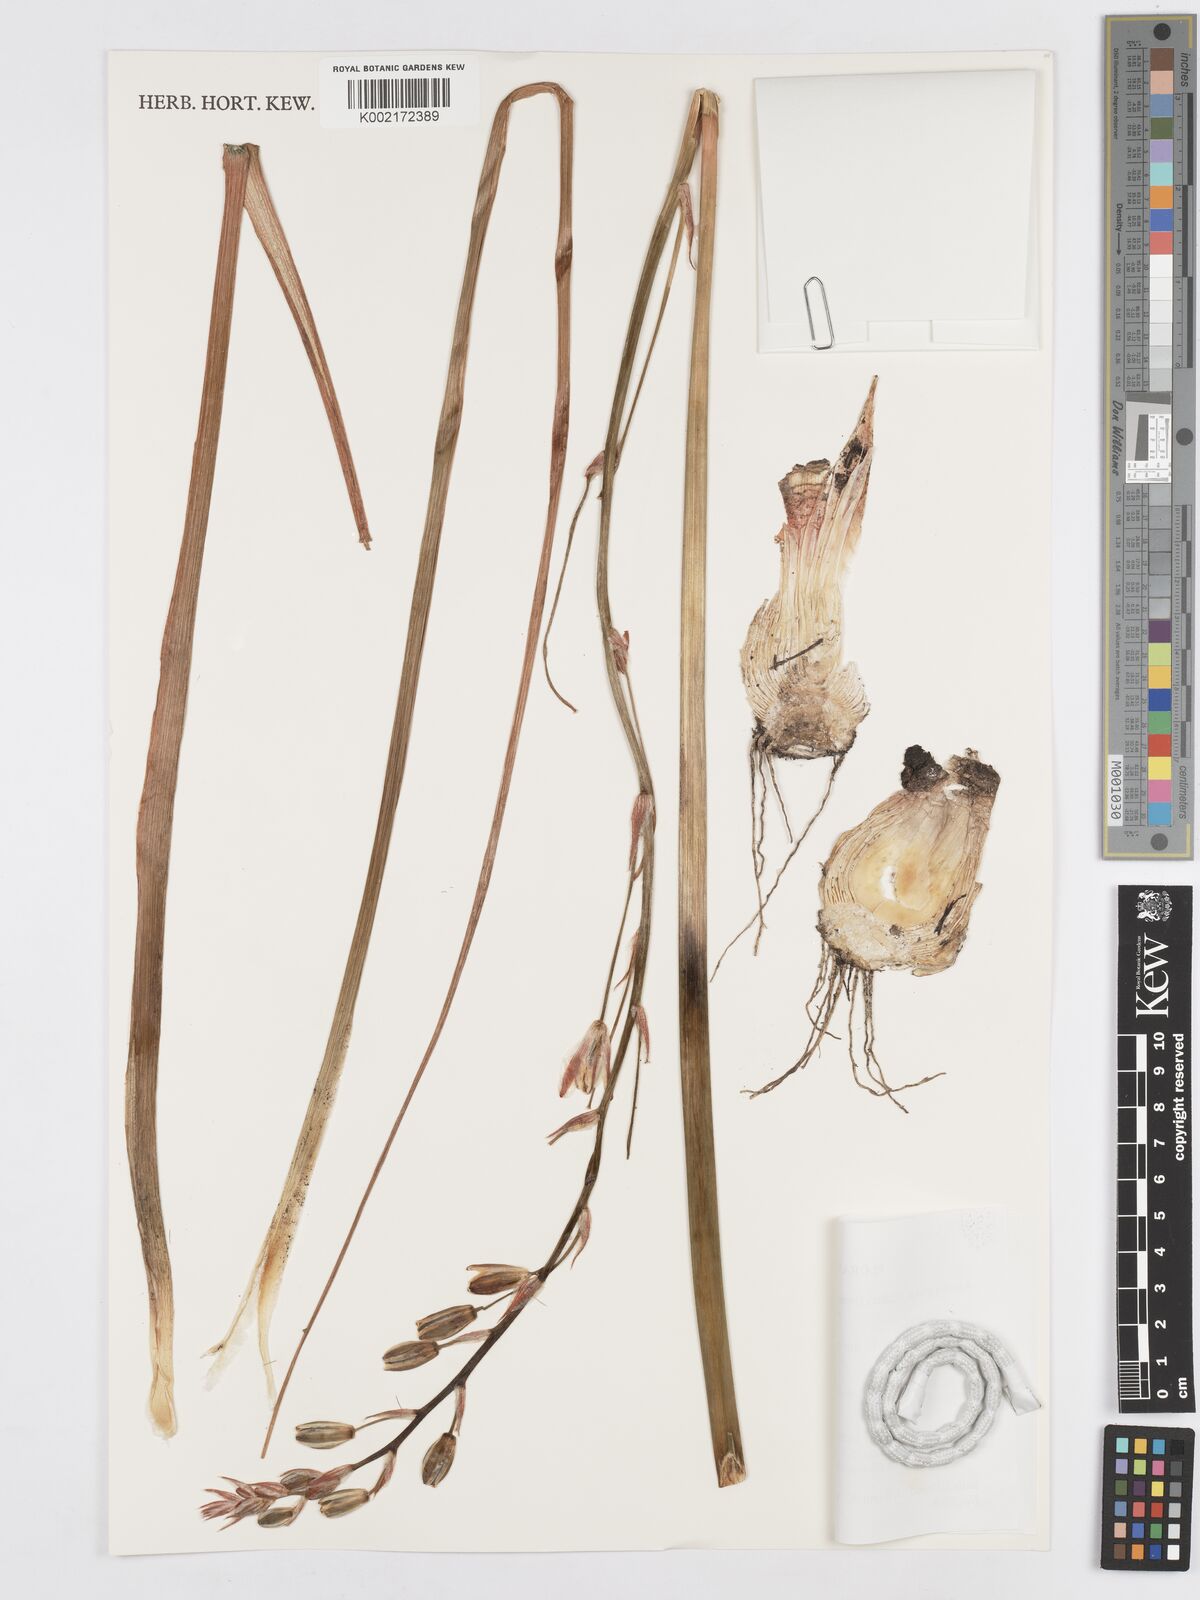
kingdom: Plantae
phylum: Tracheophyta
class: Liliopsida
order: Asparagales
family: Asparagaceae
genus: Albuca
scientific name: Albuca kirkii
